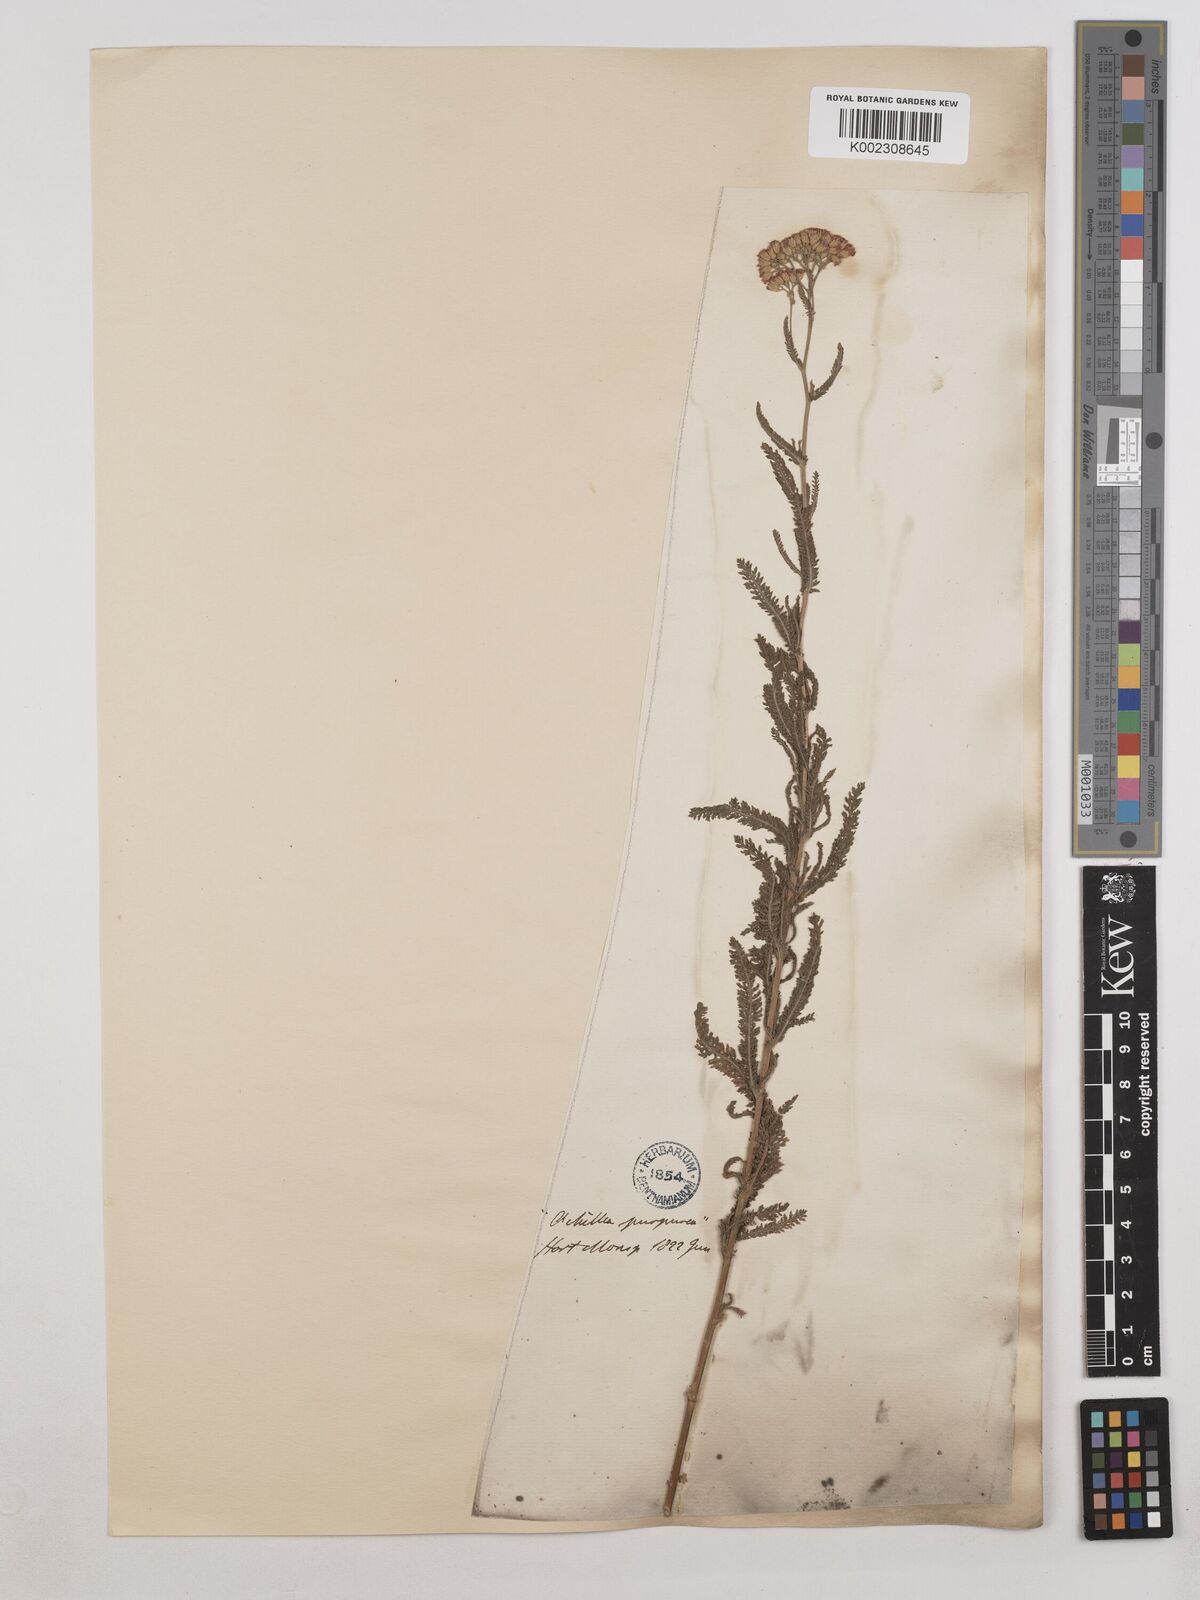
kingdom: Plantae
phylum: Tracheophyta
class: Magnoliopsida
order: Asterales
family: Asteraceae
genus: Achillea
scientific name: Achillea millefolium
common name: Yarrow
